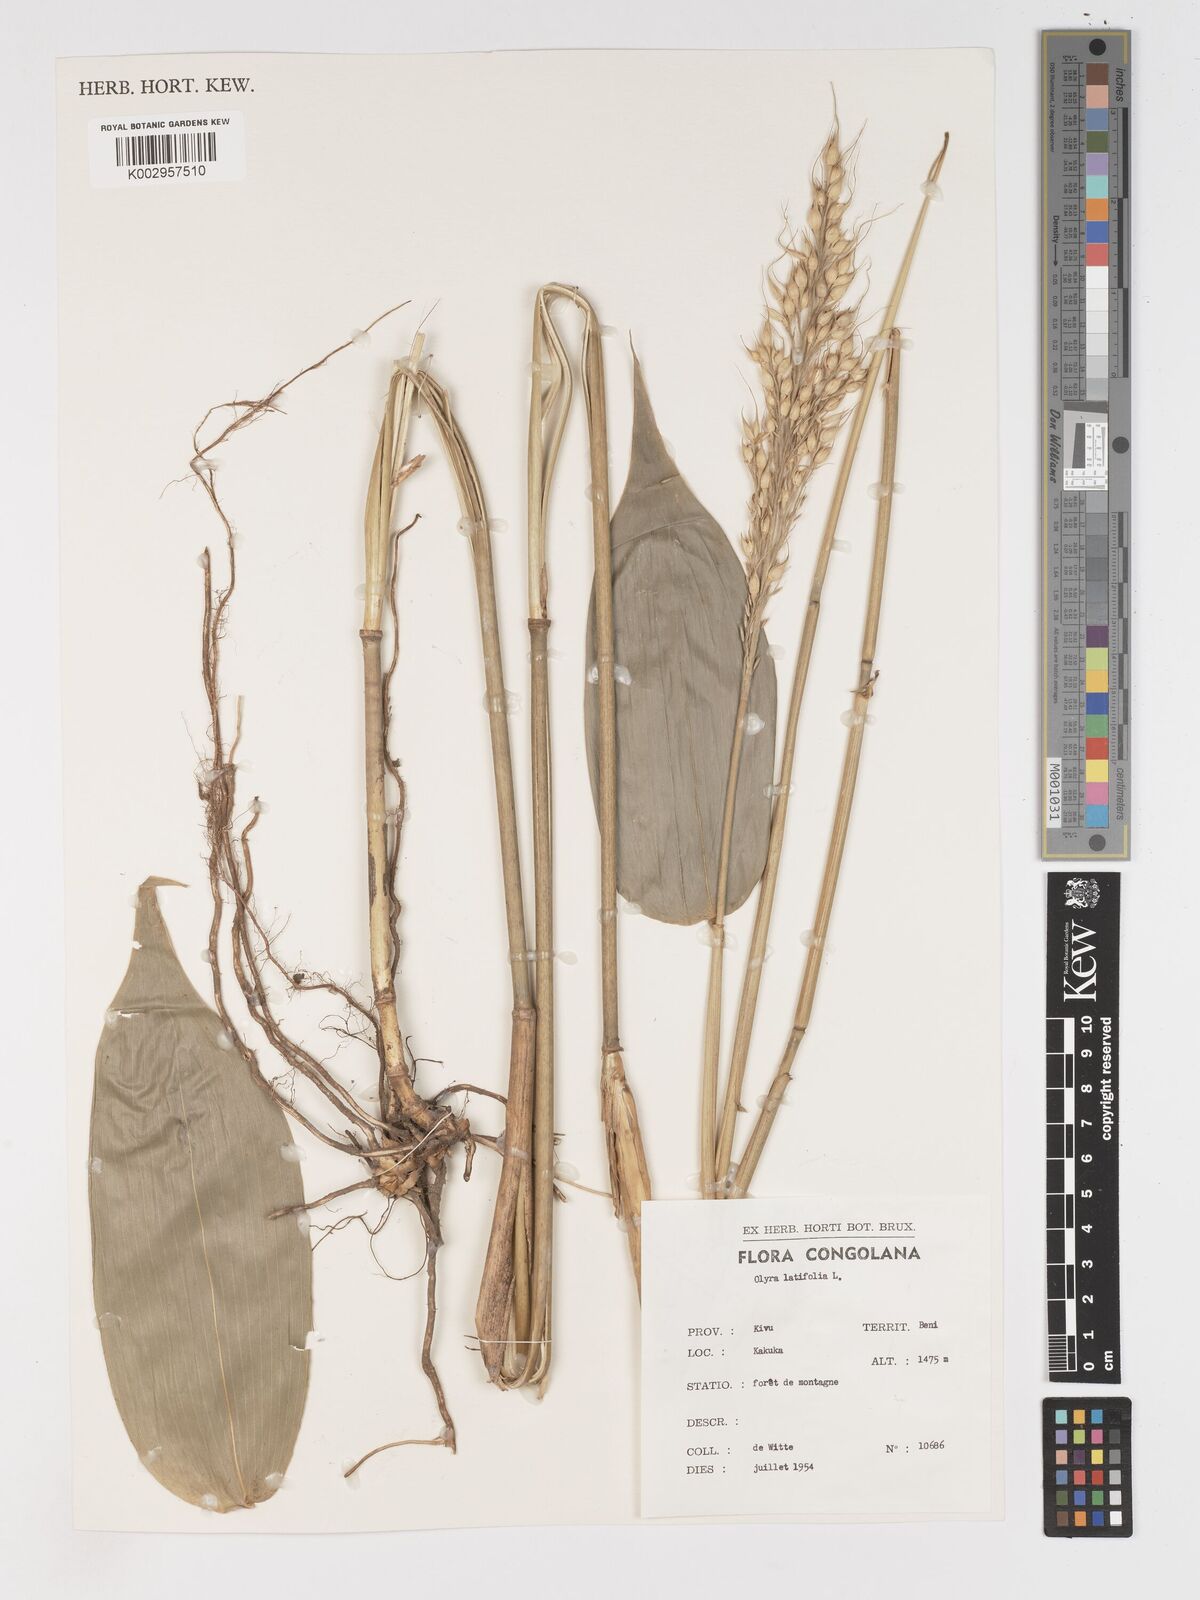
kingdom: Plantae
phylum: Tracheophyta
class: Liliopsida
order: Poales
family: Poaceae
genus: Olyra
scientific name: Olyra latifolia
